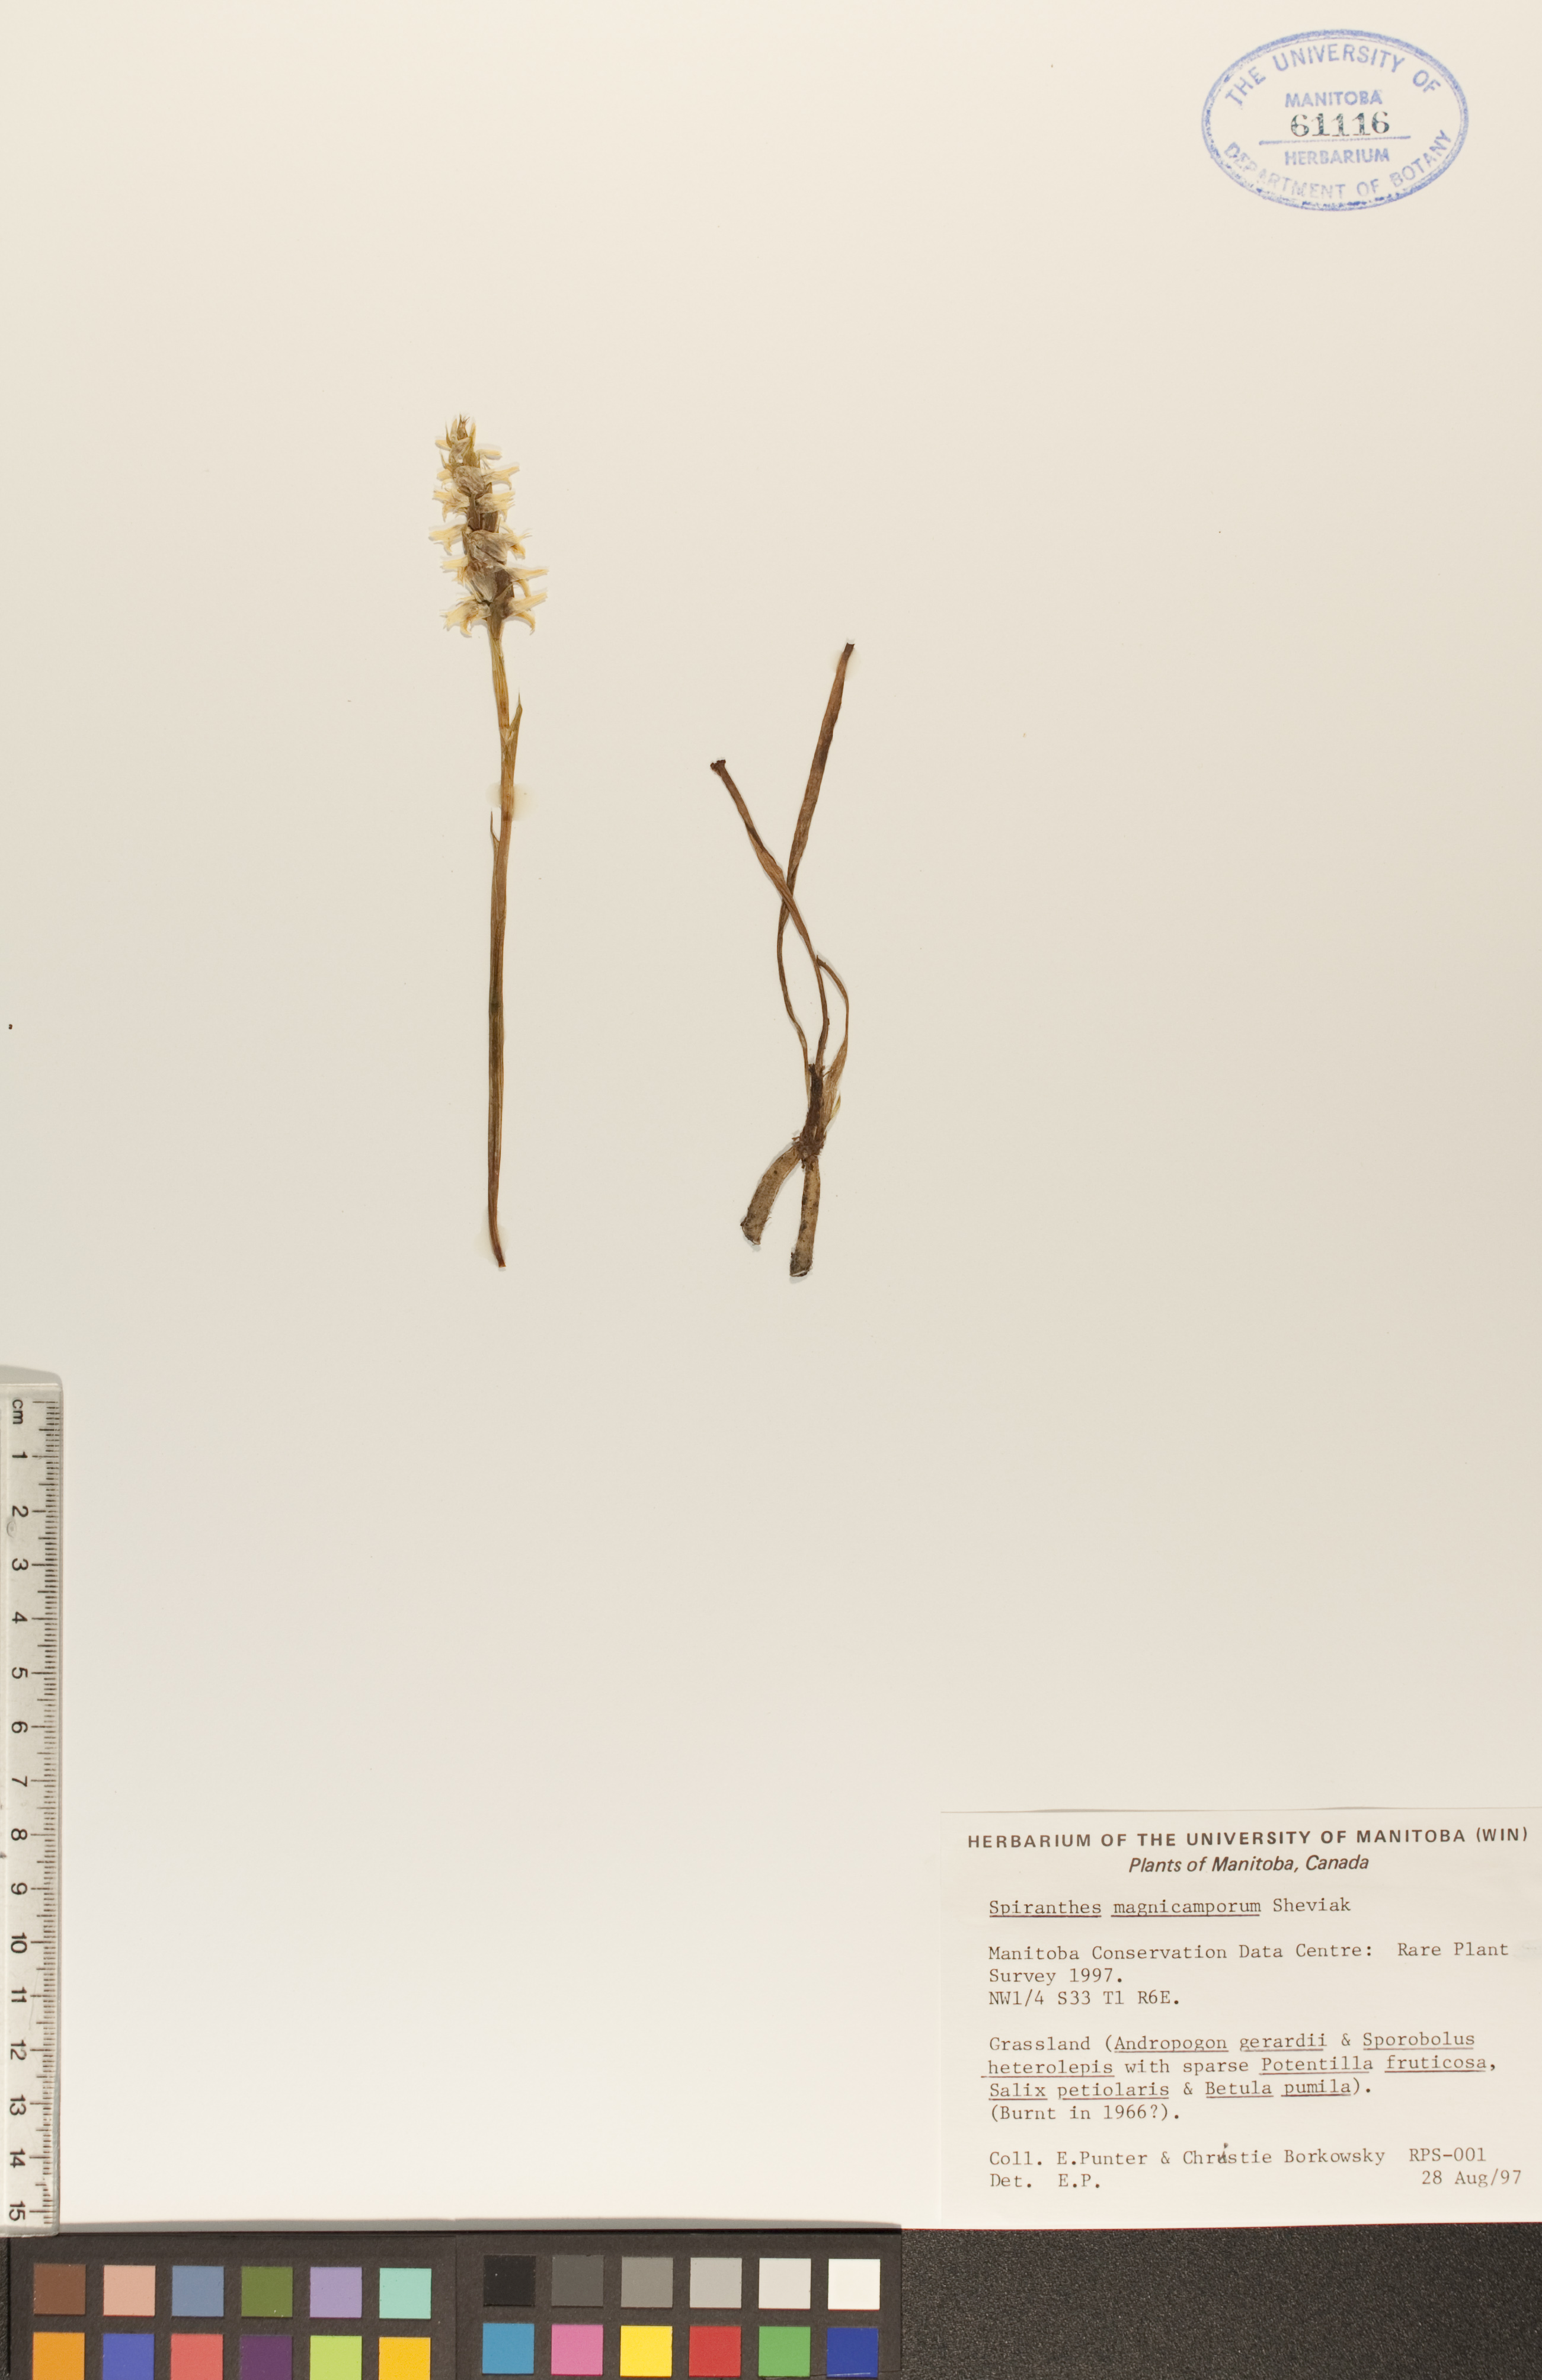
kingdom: Plantae
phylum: Tracheophyta
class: Liliopsida
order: Asparagales
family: Orchidaceae
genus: Spiranthes
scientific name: Spiranthes magnicamporum
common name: Great plains ladies'-tresses
